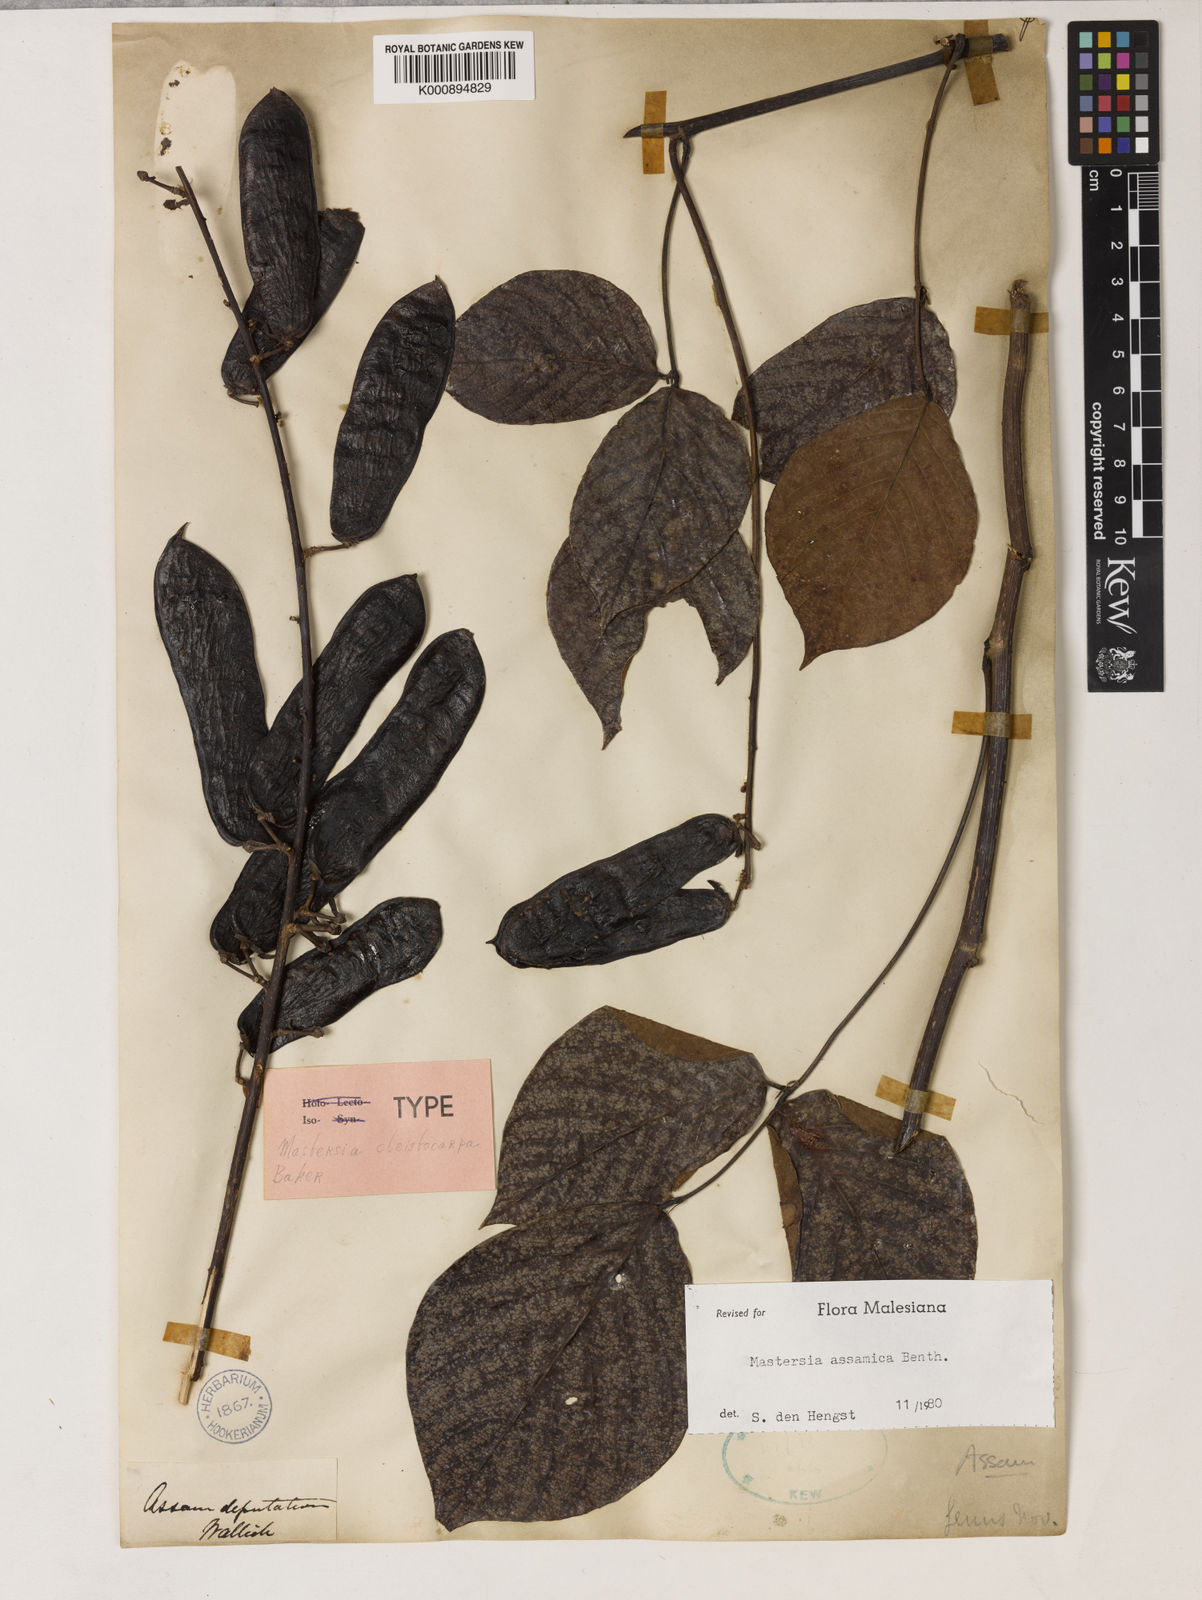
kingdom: Plantae
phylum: Tracheophyta
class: Magnoliopsida
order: Fabales
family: Fabaceae
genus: Mastersia
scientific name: Mastersia assamica
